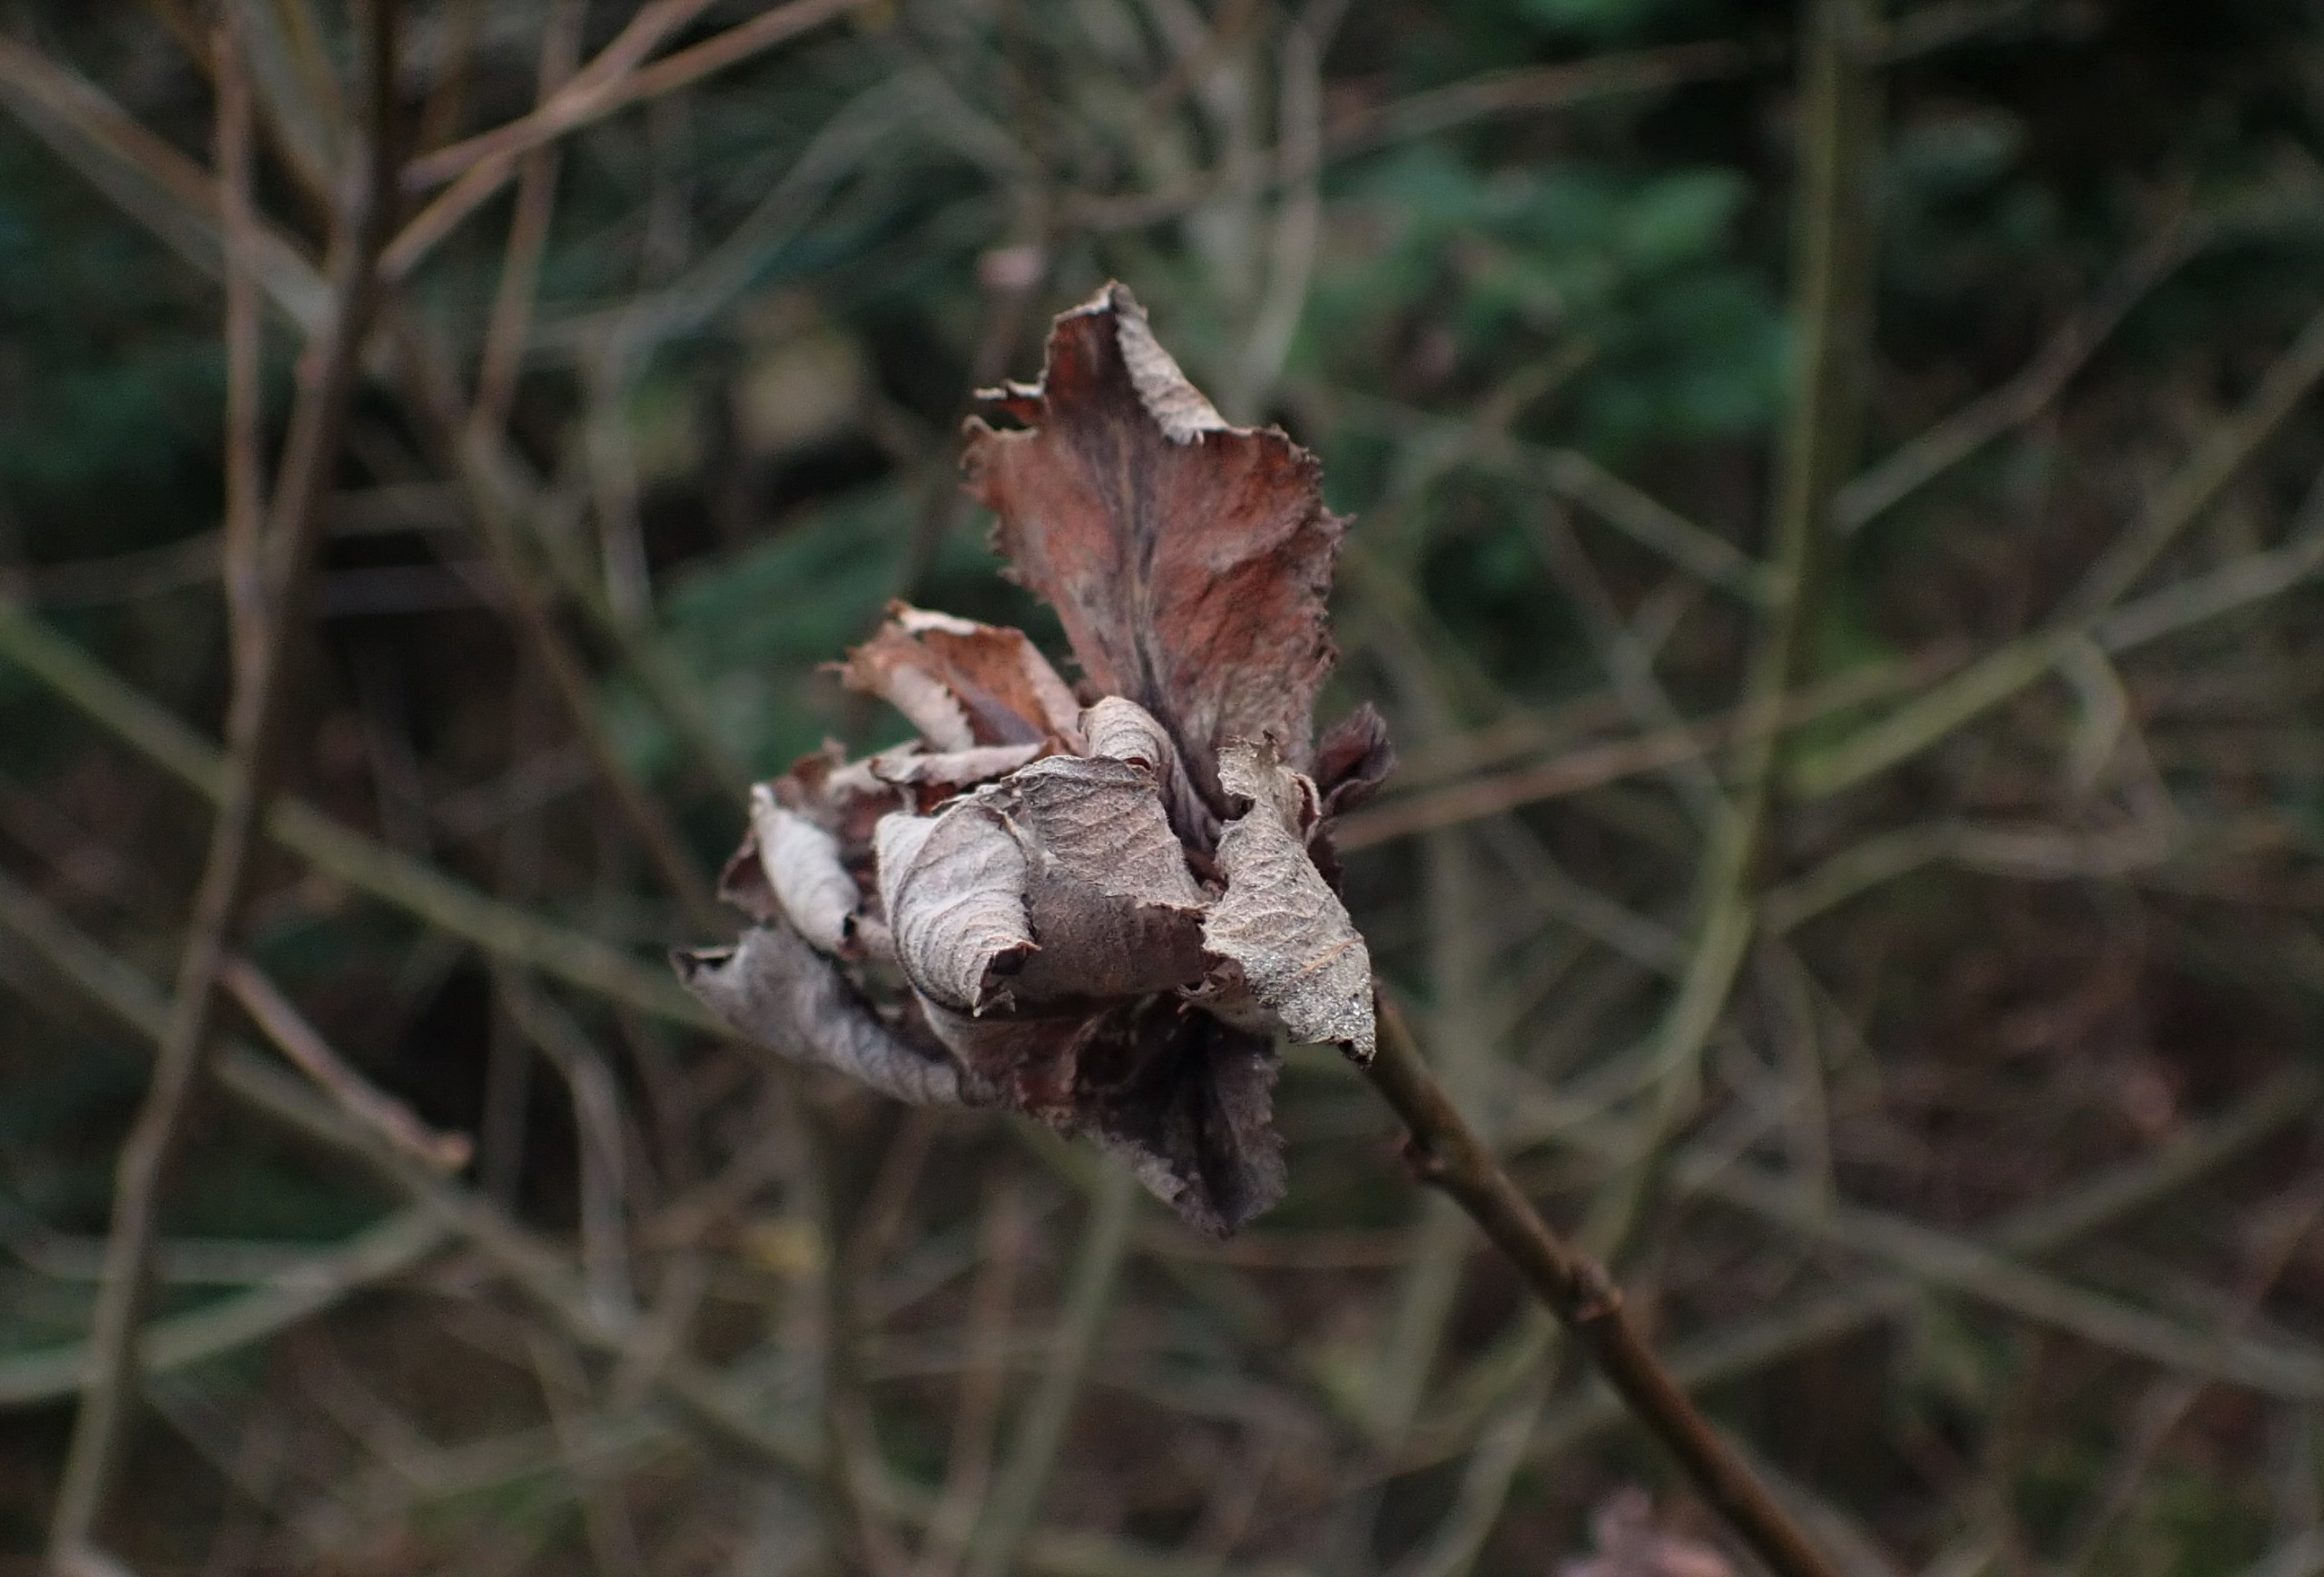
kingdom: Animalia
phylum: Arthropoda
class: Insecta
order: Diptera
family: Cecidomyiidae
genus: Rabdophaga
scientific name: Rabdophaga rosaria
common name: Pilerosetgalmyg
